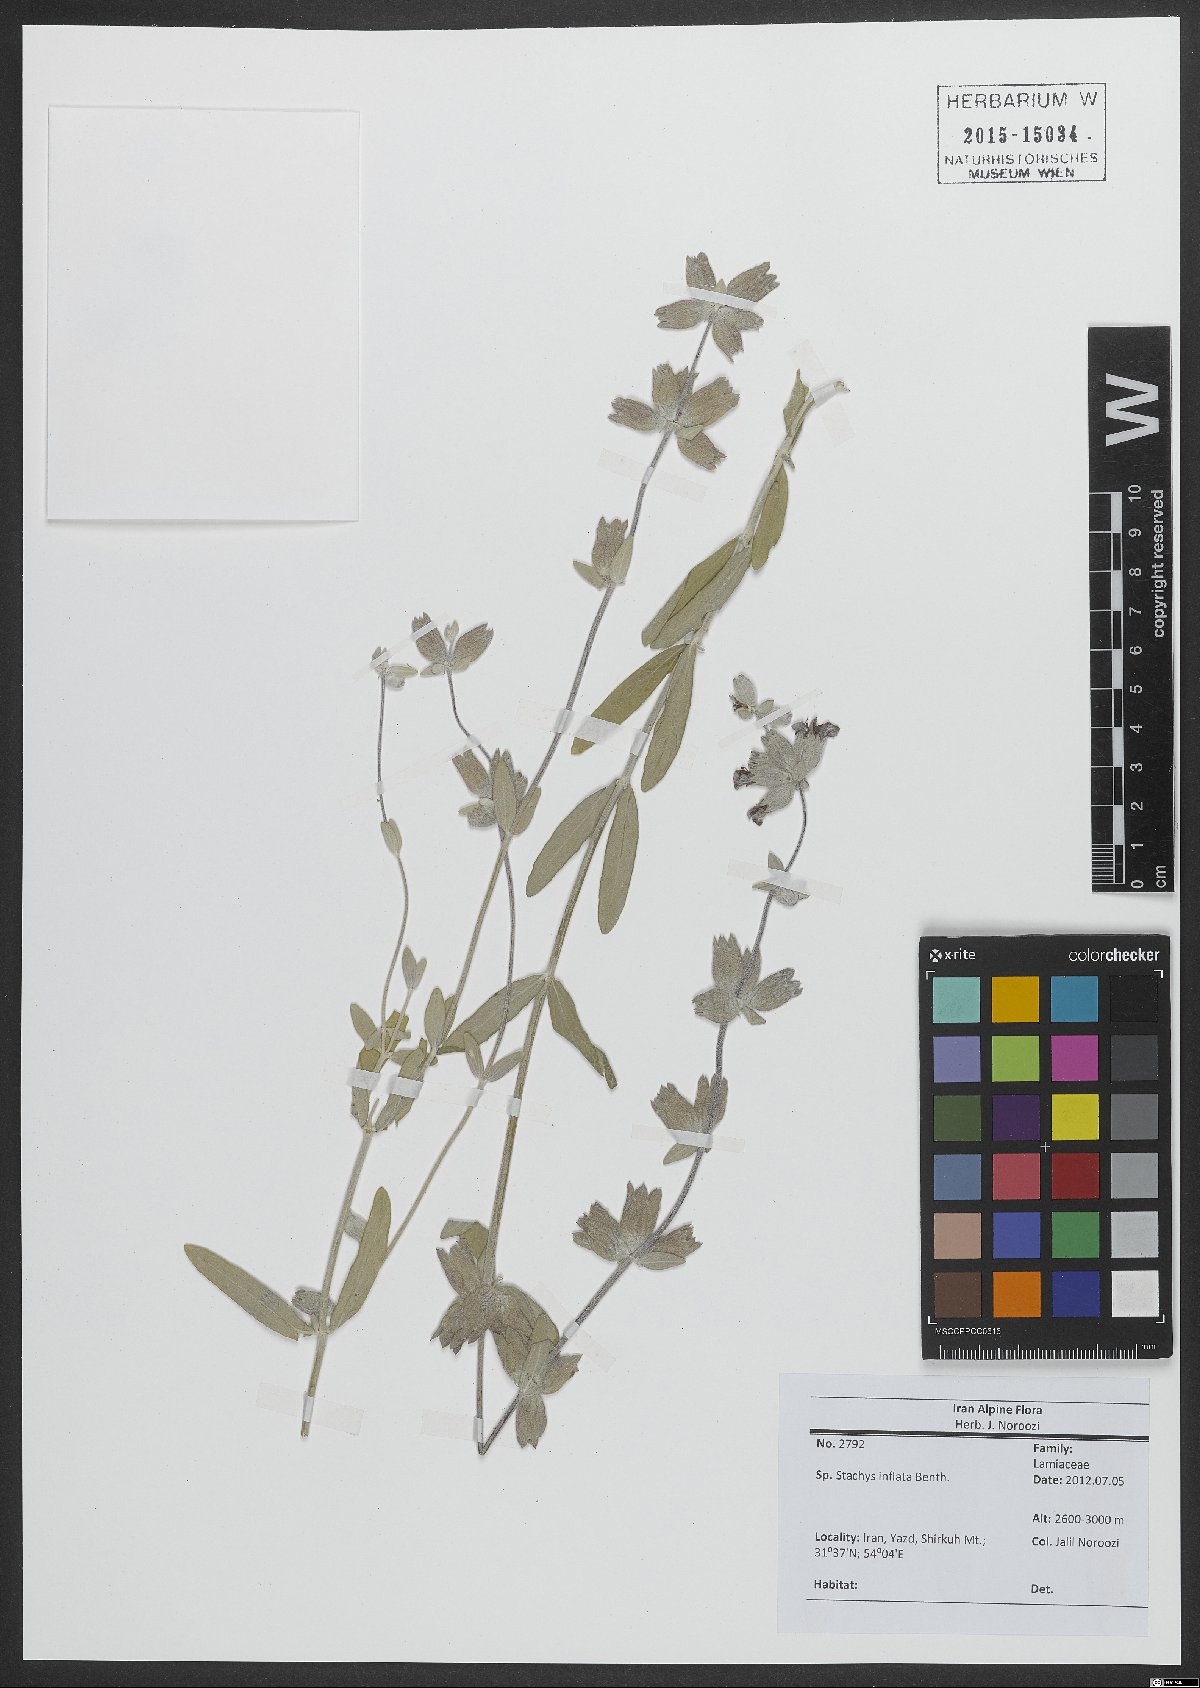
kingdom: Plantae
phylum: Tracheophyta
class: Magnoliopsida
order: Lamiales
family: Lamiaceae
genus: Stachys
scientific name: Stachys inflata
